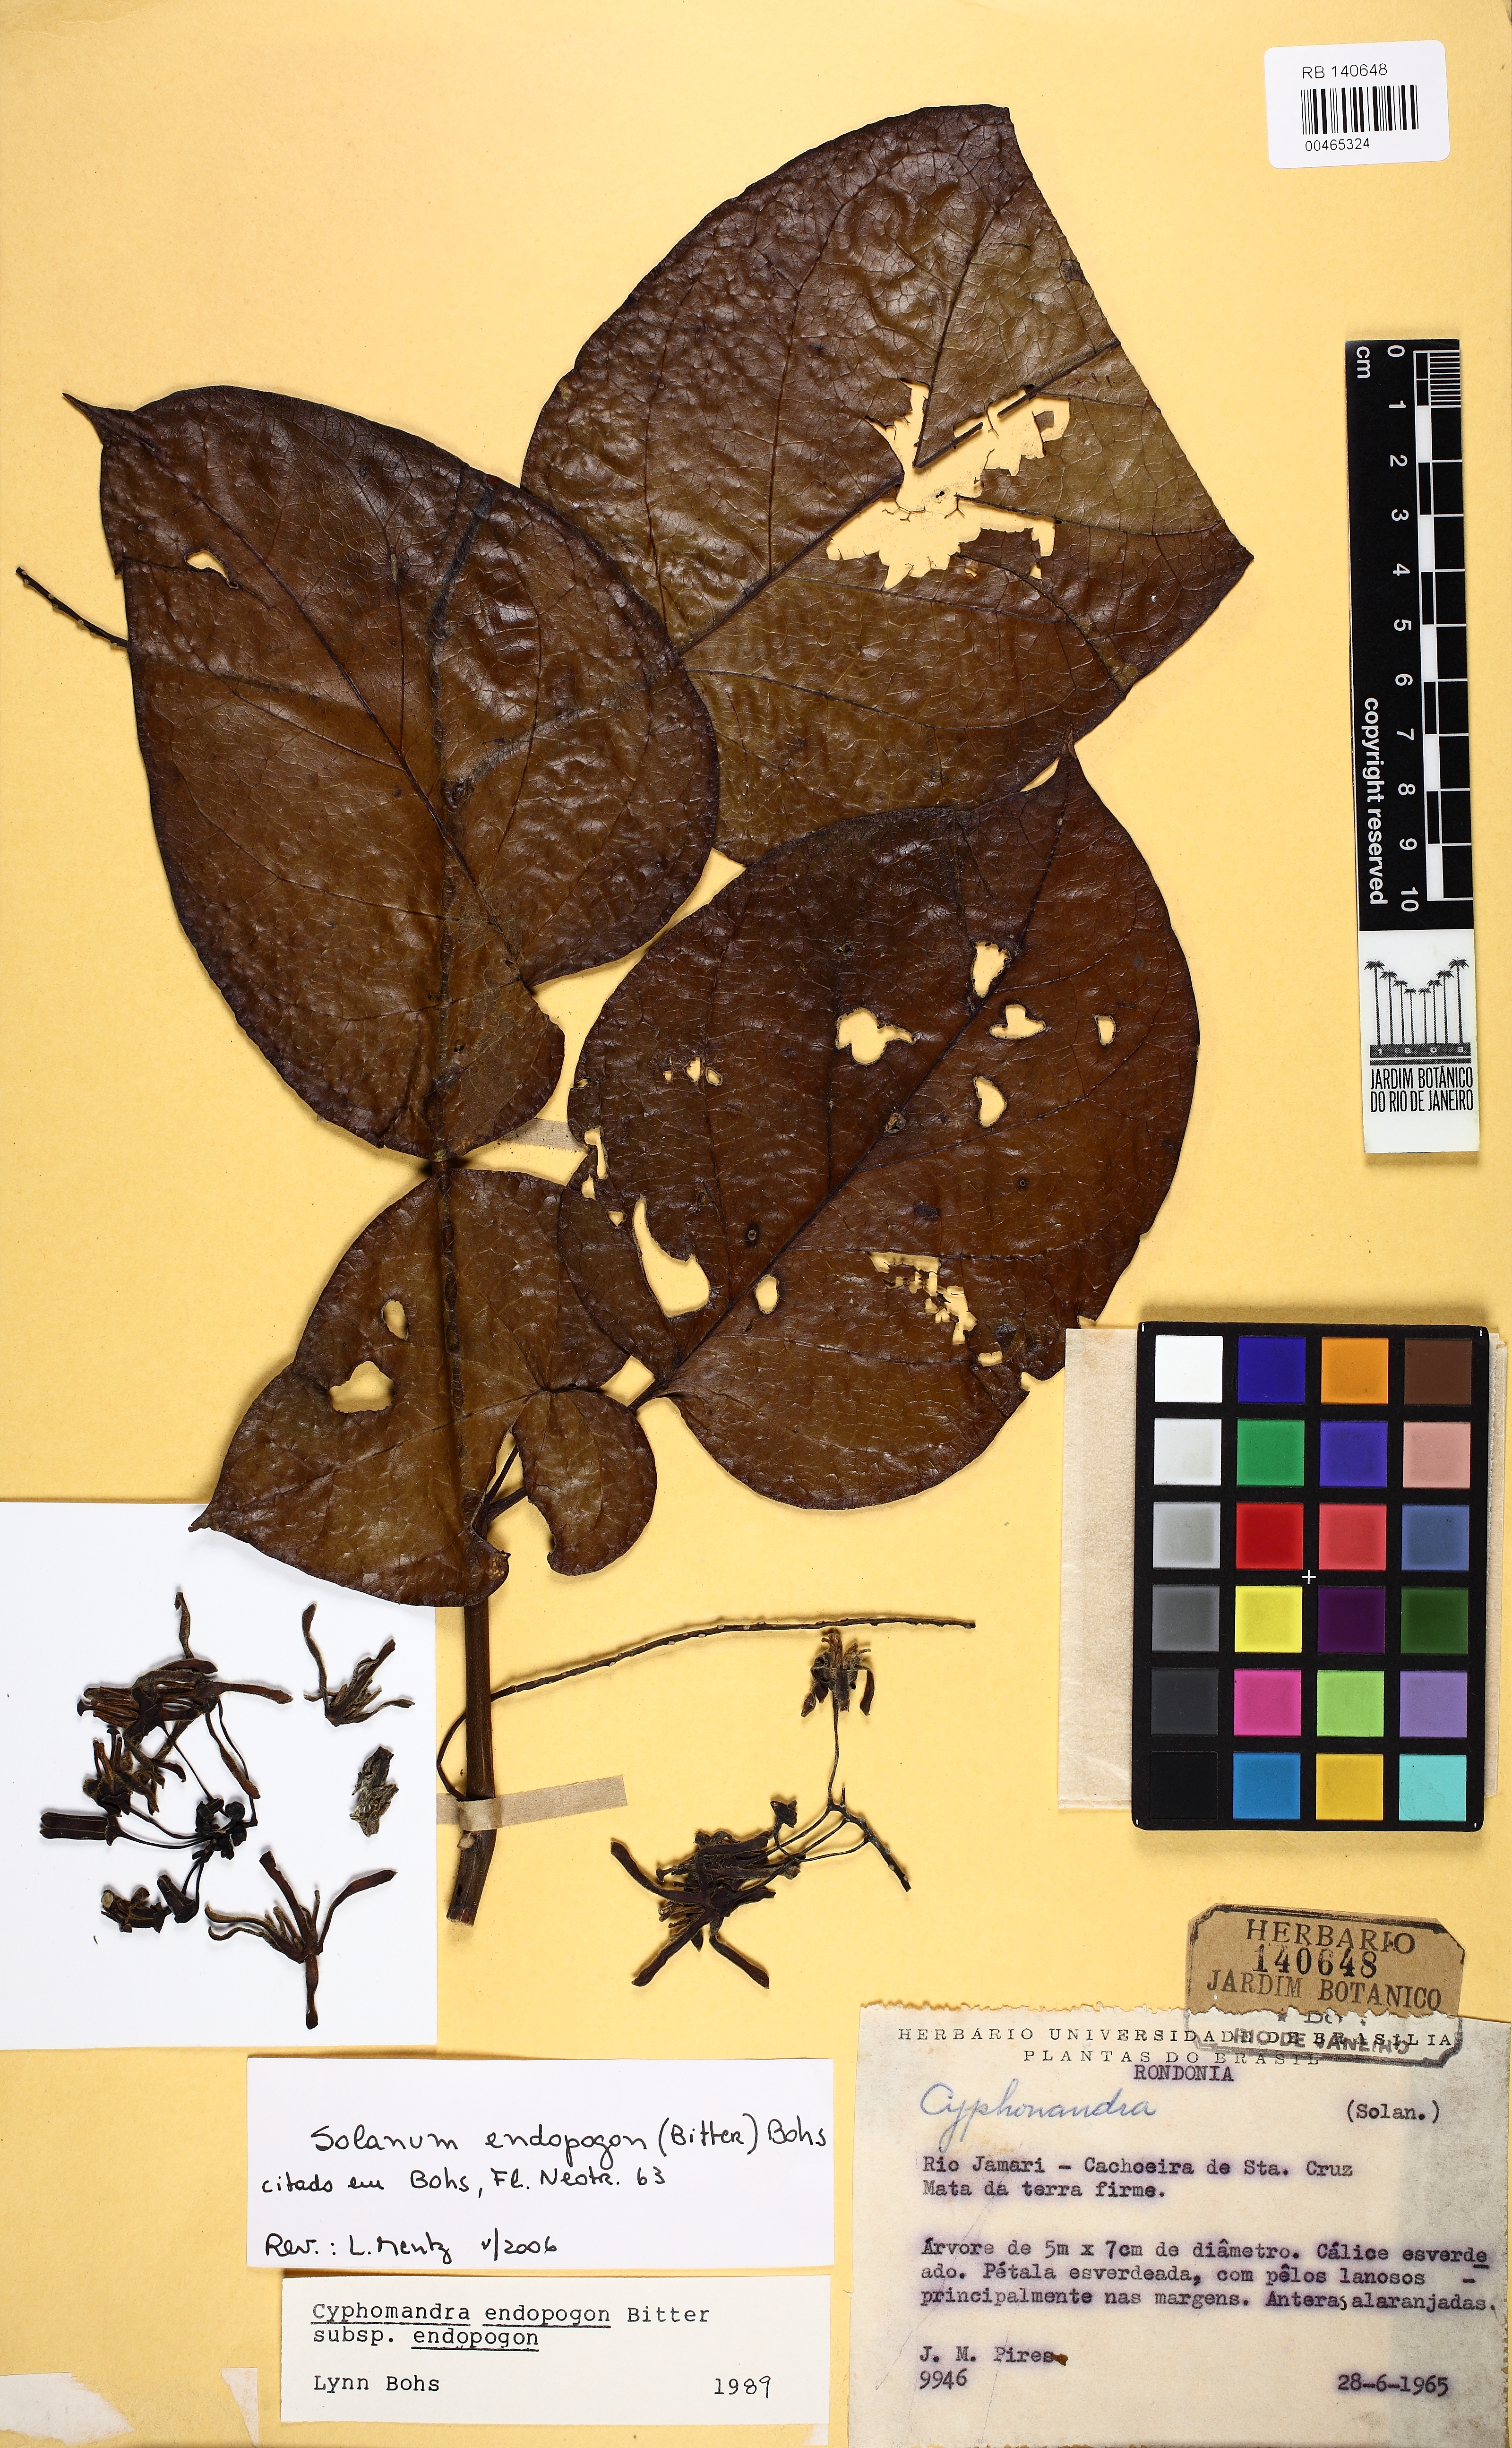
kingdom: Plantae
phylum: Tracheophyta
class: Magnoliopsida
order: Solanales
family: Solanaceae
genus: Solanum
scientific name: Solanum endopogon
